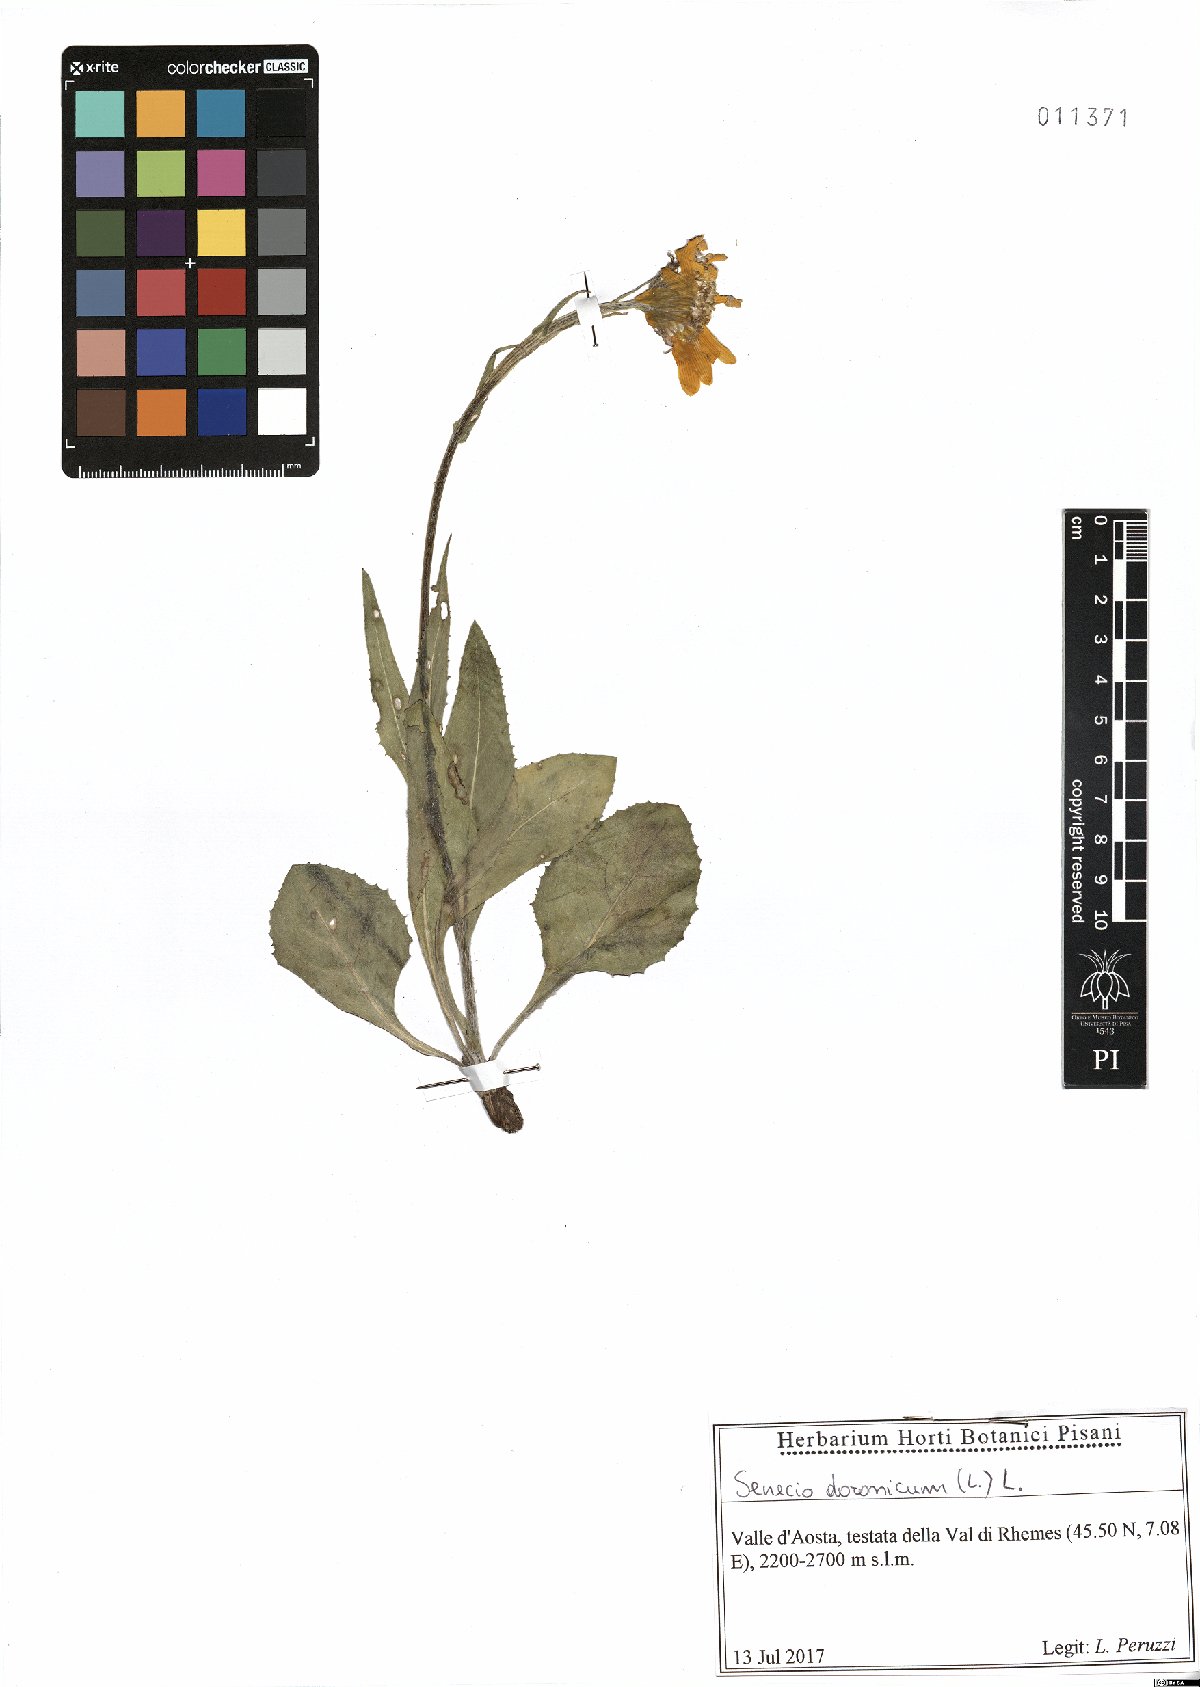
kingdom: Plantae
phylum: Tracheophyta
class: Magnoliopsida
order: Asterales
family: Asteraceae
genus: Senecio
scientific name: Senecio doronicum
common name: Chamois ragwort
